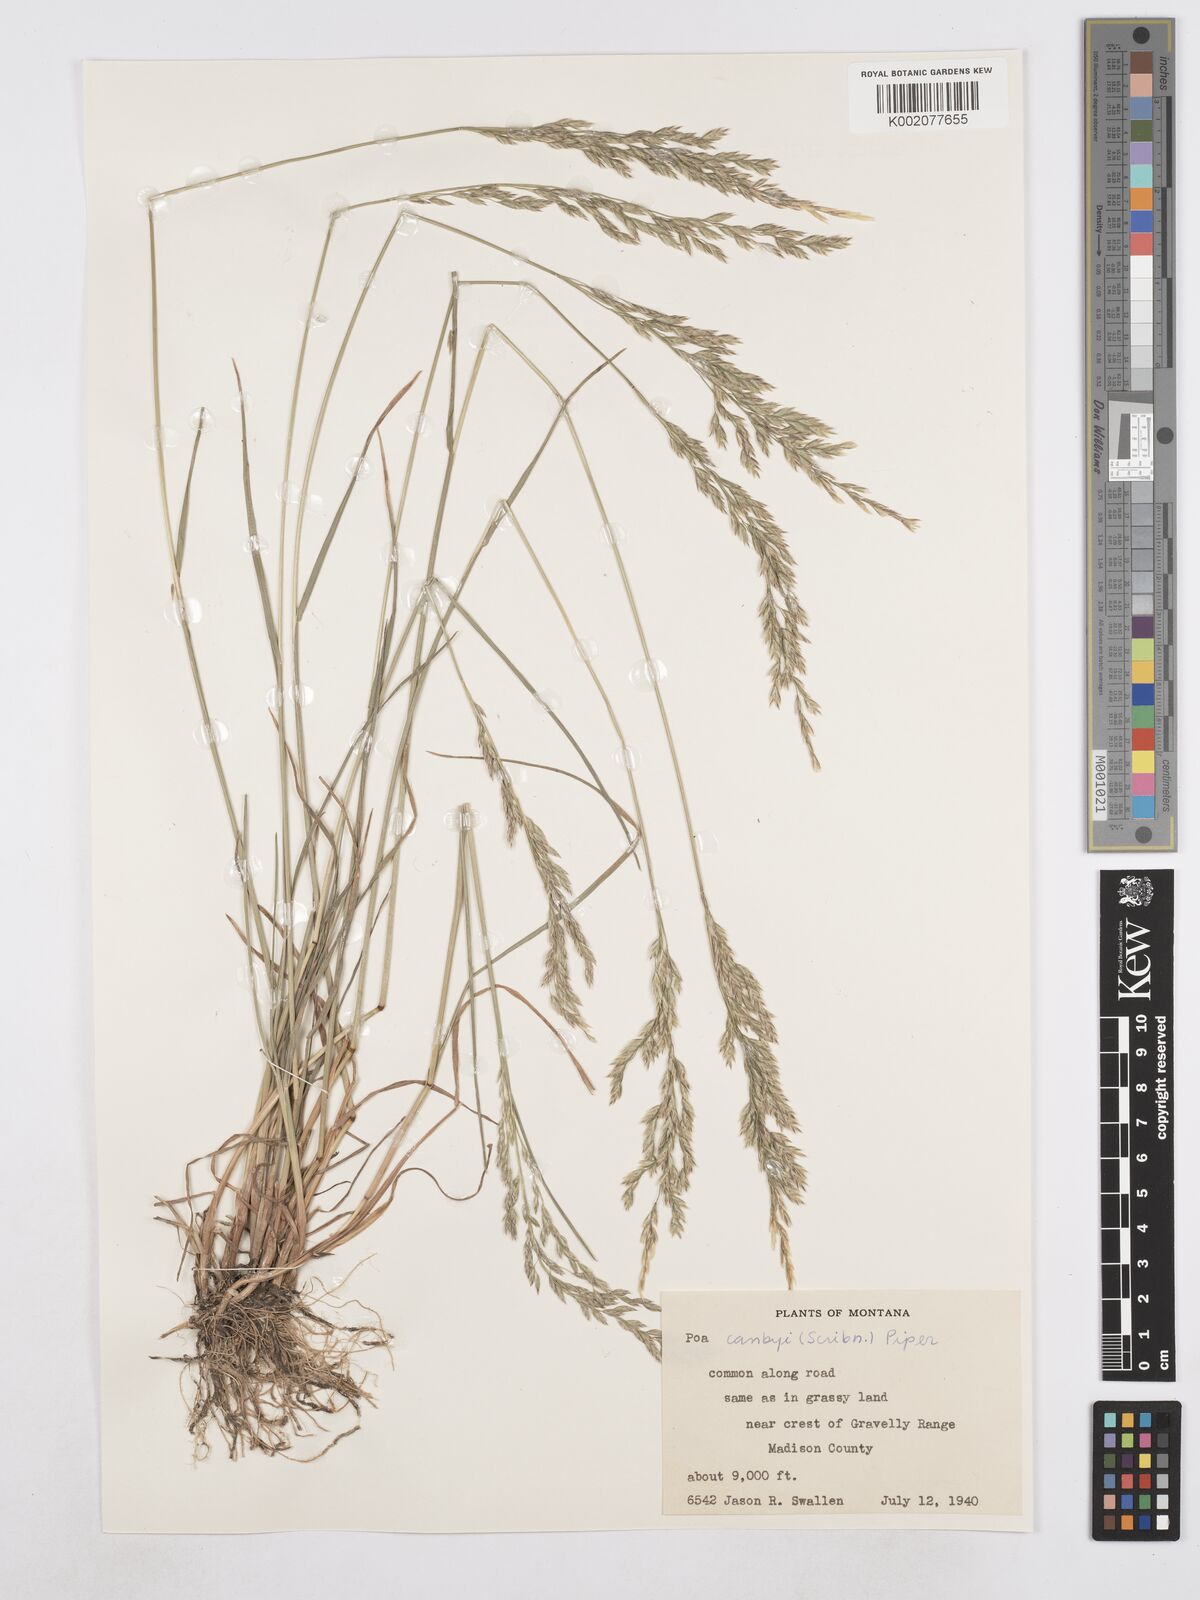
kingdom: Plantae
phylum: Tracheophyta
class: Liliopsida
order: Poales
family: Poaceae
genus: Poa
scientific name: Poa secunda
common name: Sandberg bluegrass
